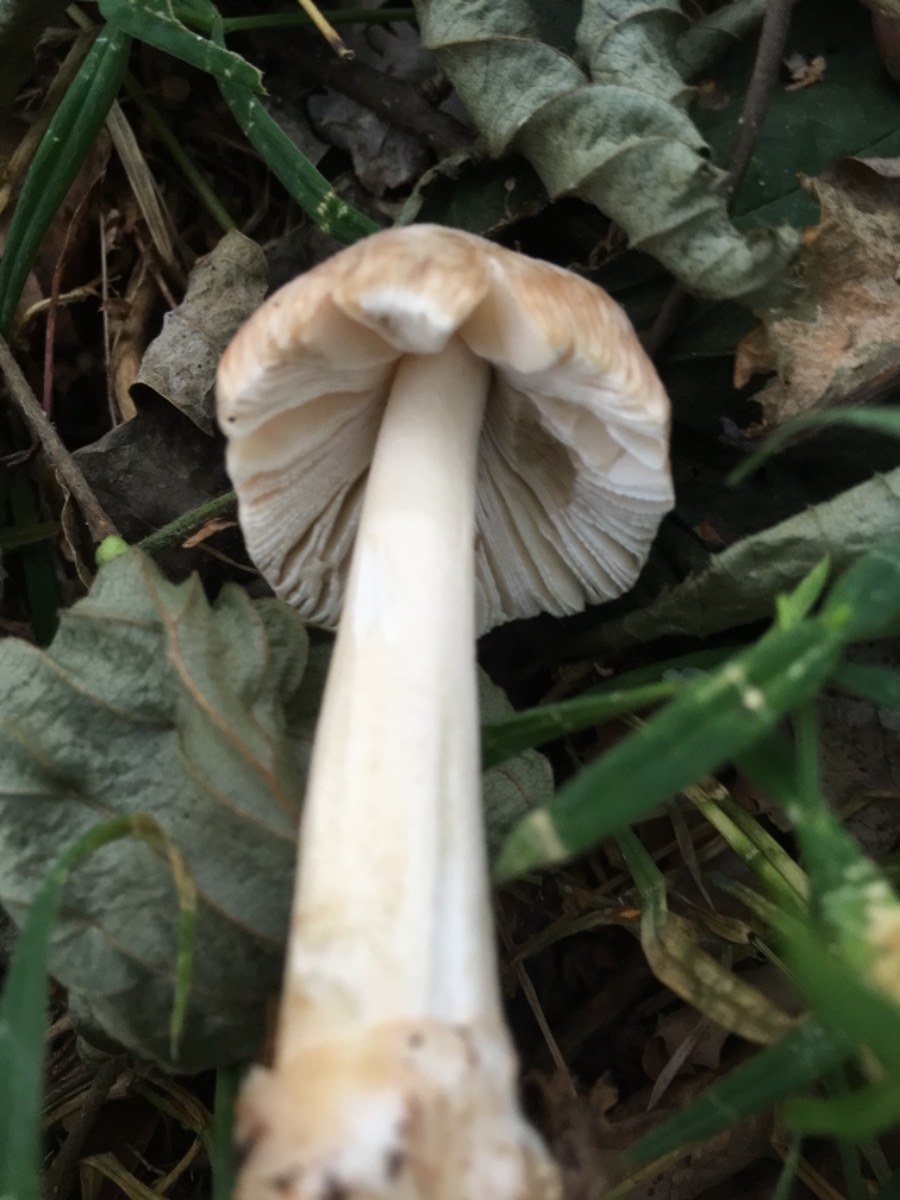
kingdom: Fungi
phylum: Basidiomycota
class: Agaricomycetes
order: Agaricales
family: Amanitaceae
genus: Amanita
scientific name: Amanita
